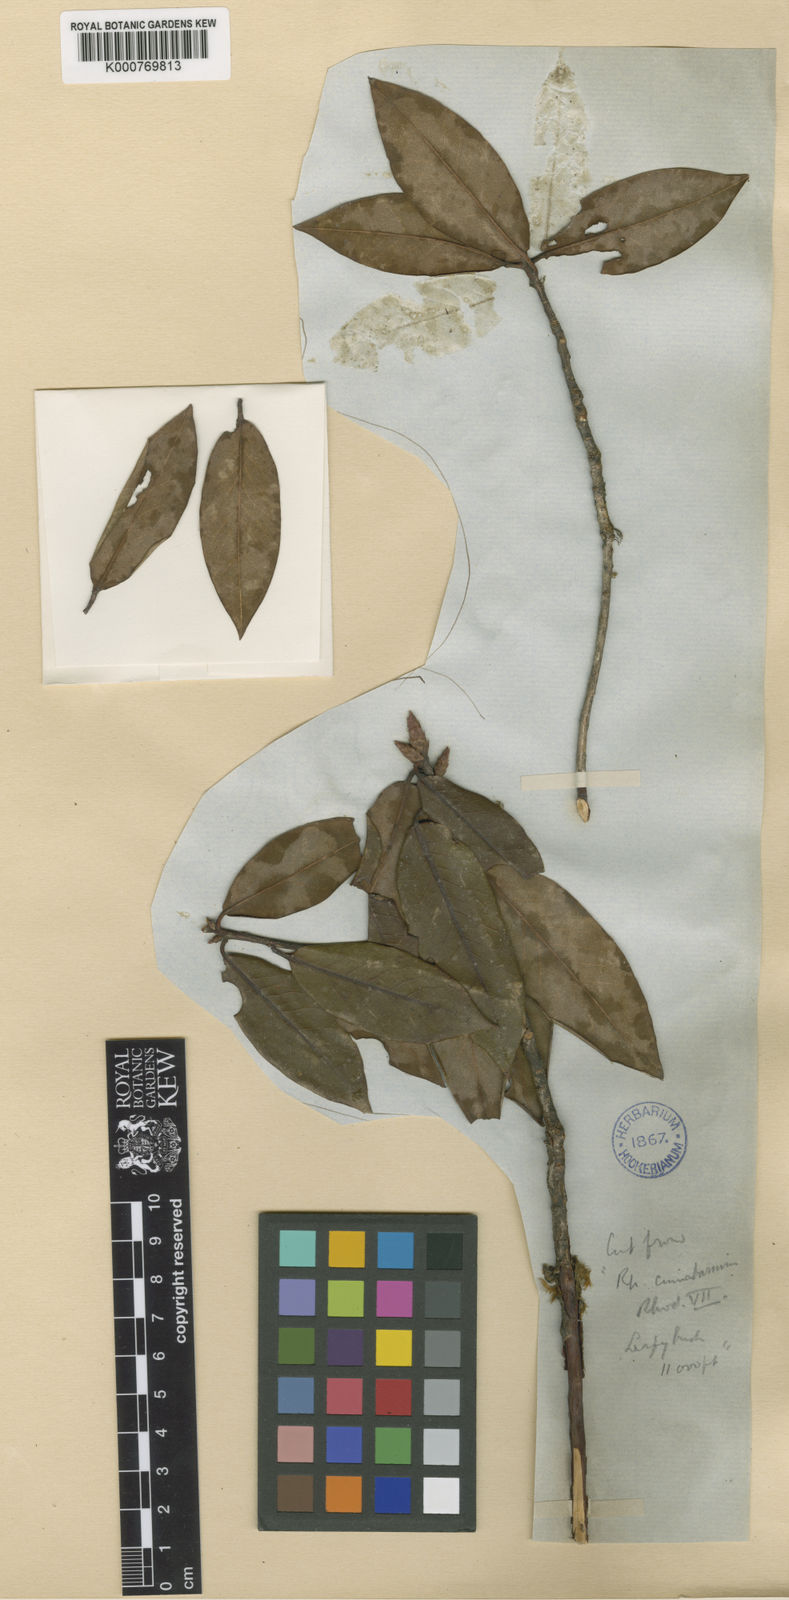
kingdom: Plantae
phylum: Tracheophyta
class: Magnoliopsida
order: Ericales
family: Ericaceae
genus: Rhododendron
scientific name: Rhododendron cinnabarinum
